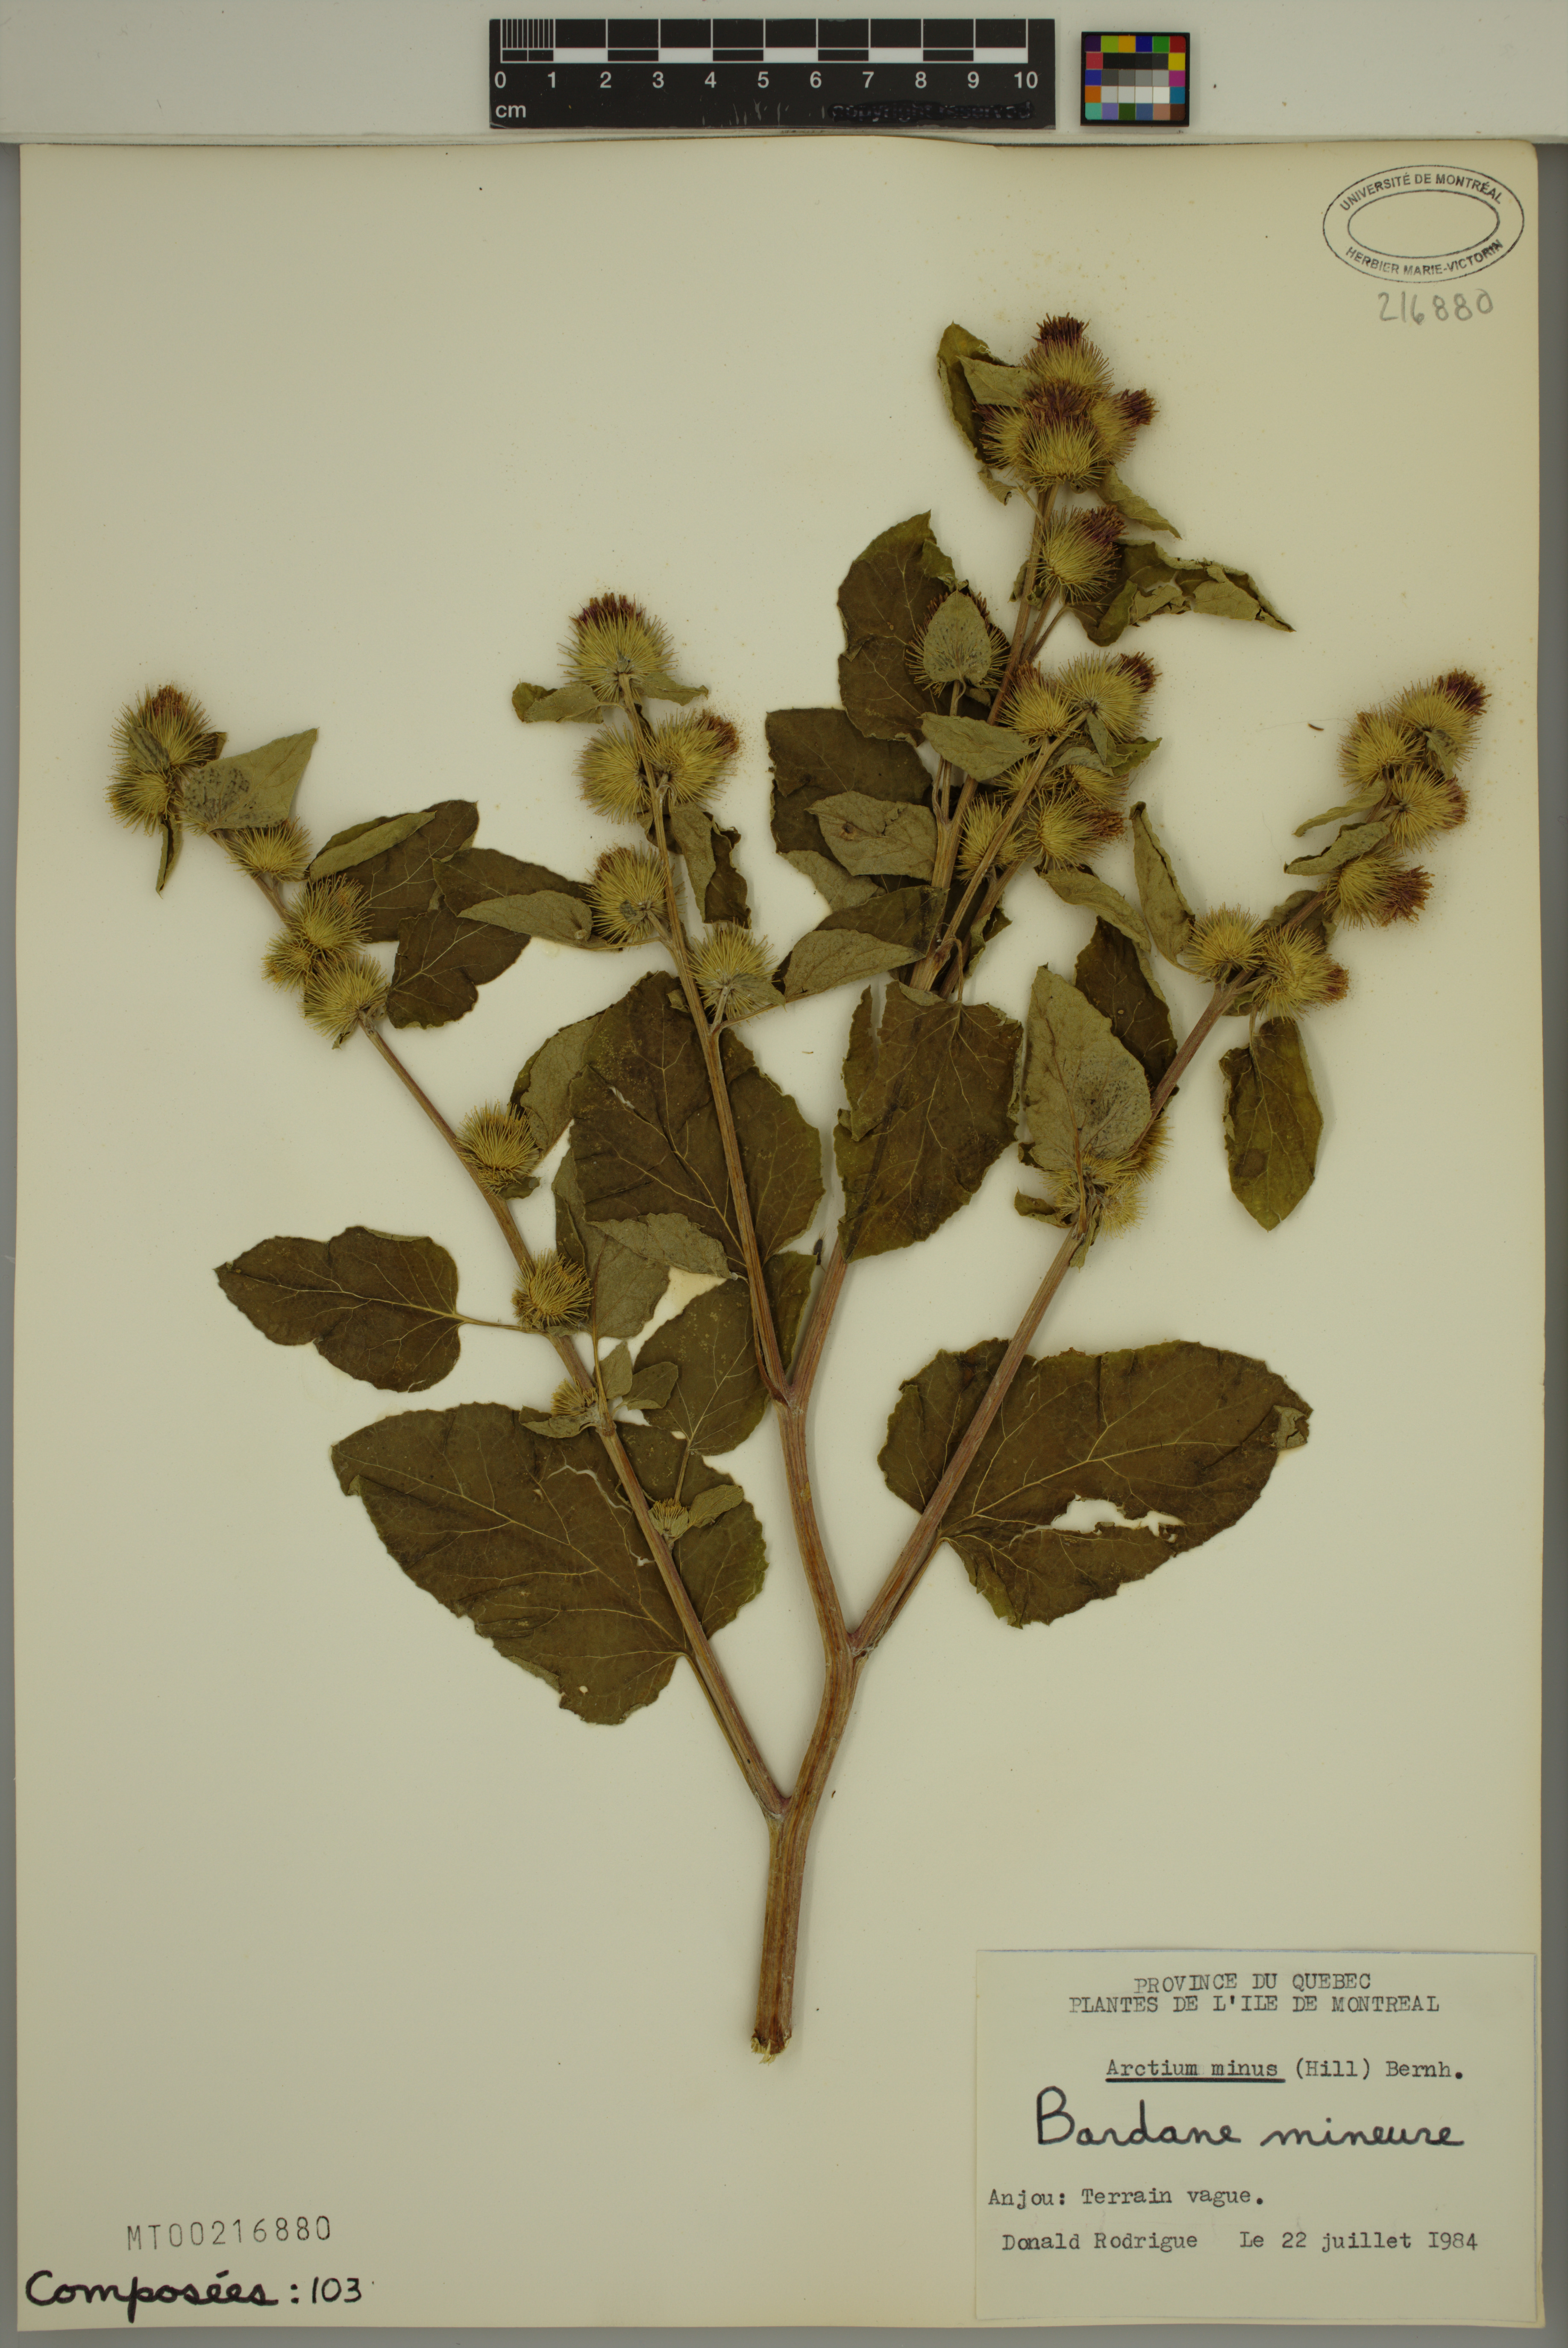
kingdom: Plantae
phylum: Tracheophyta
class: Magnoliopsida
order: Asterales
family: Asteraceae
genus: Arctium
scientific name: Arctium minus
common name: Lesser burdock
